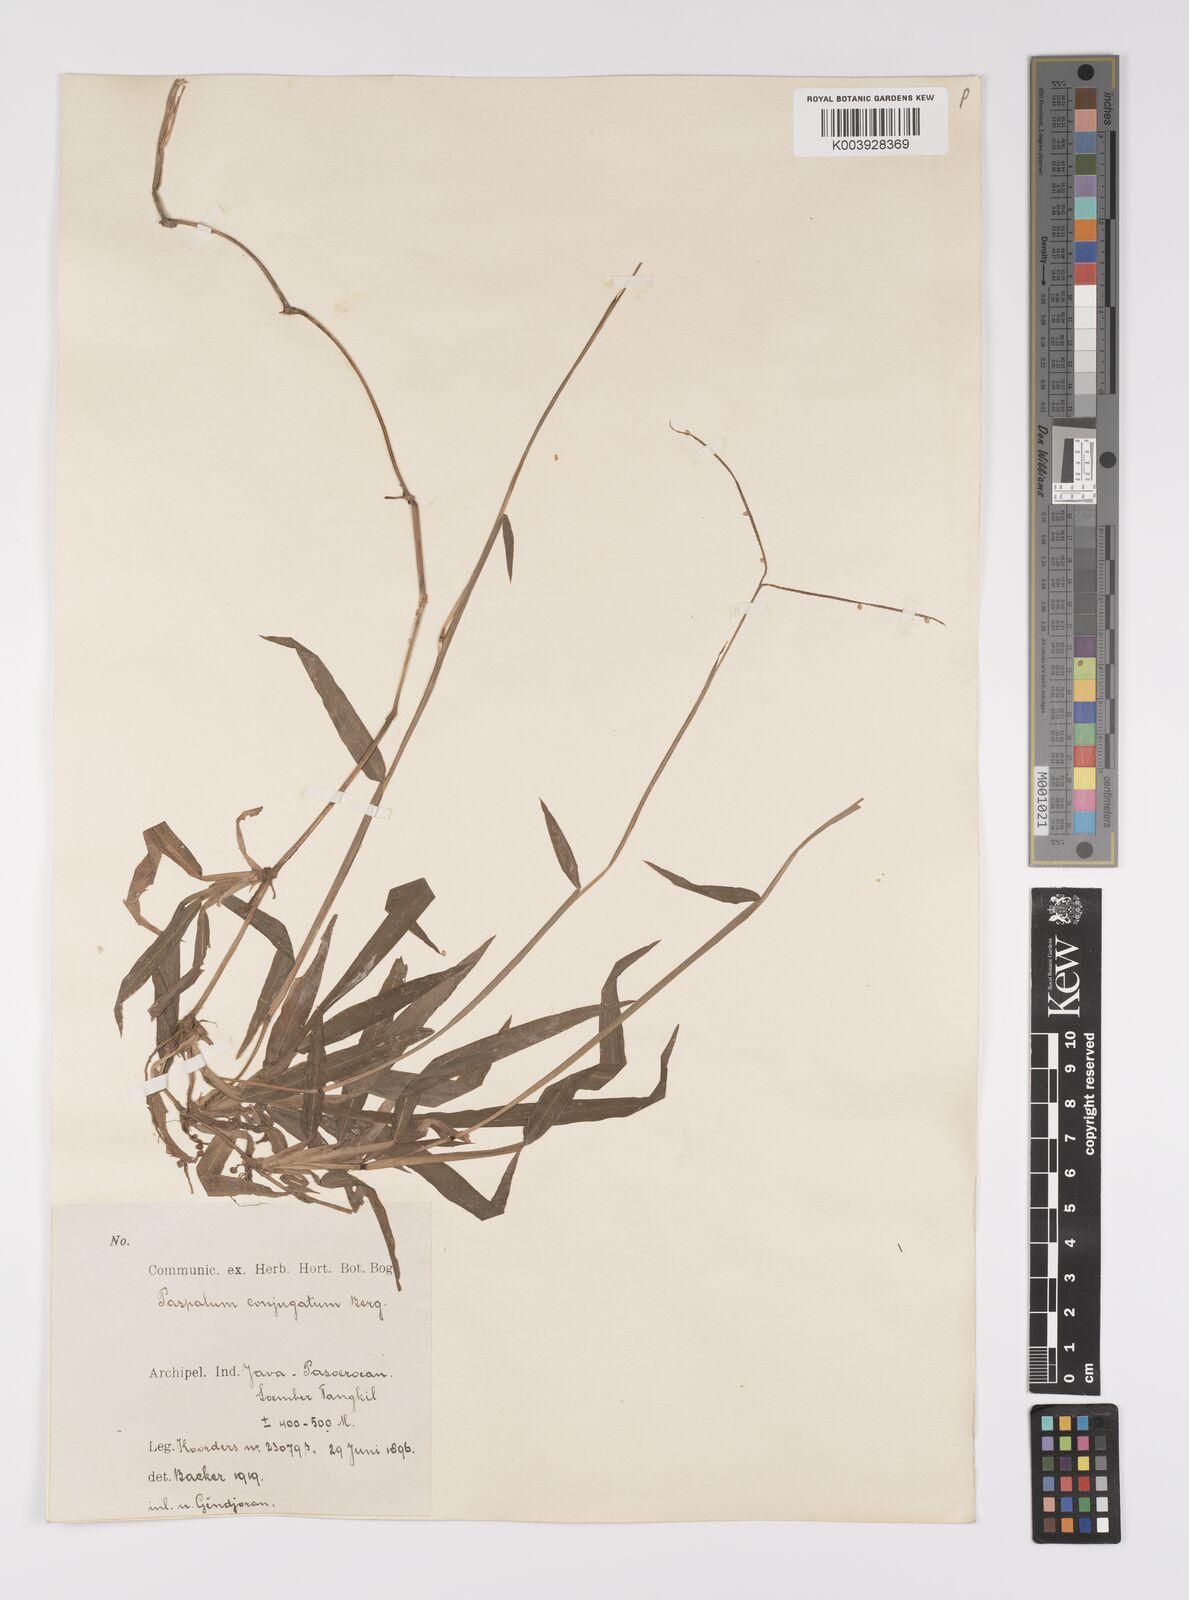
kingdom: Plantae
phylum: Tracheophyta
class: Liliopsida
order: Poales
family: Poaceae
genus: Paspalum
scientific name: Paspalum conjugatum
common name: Hilograss
